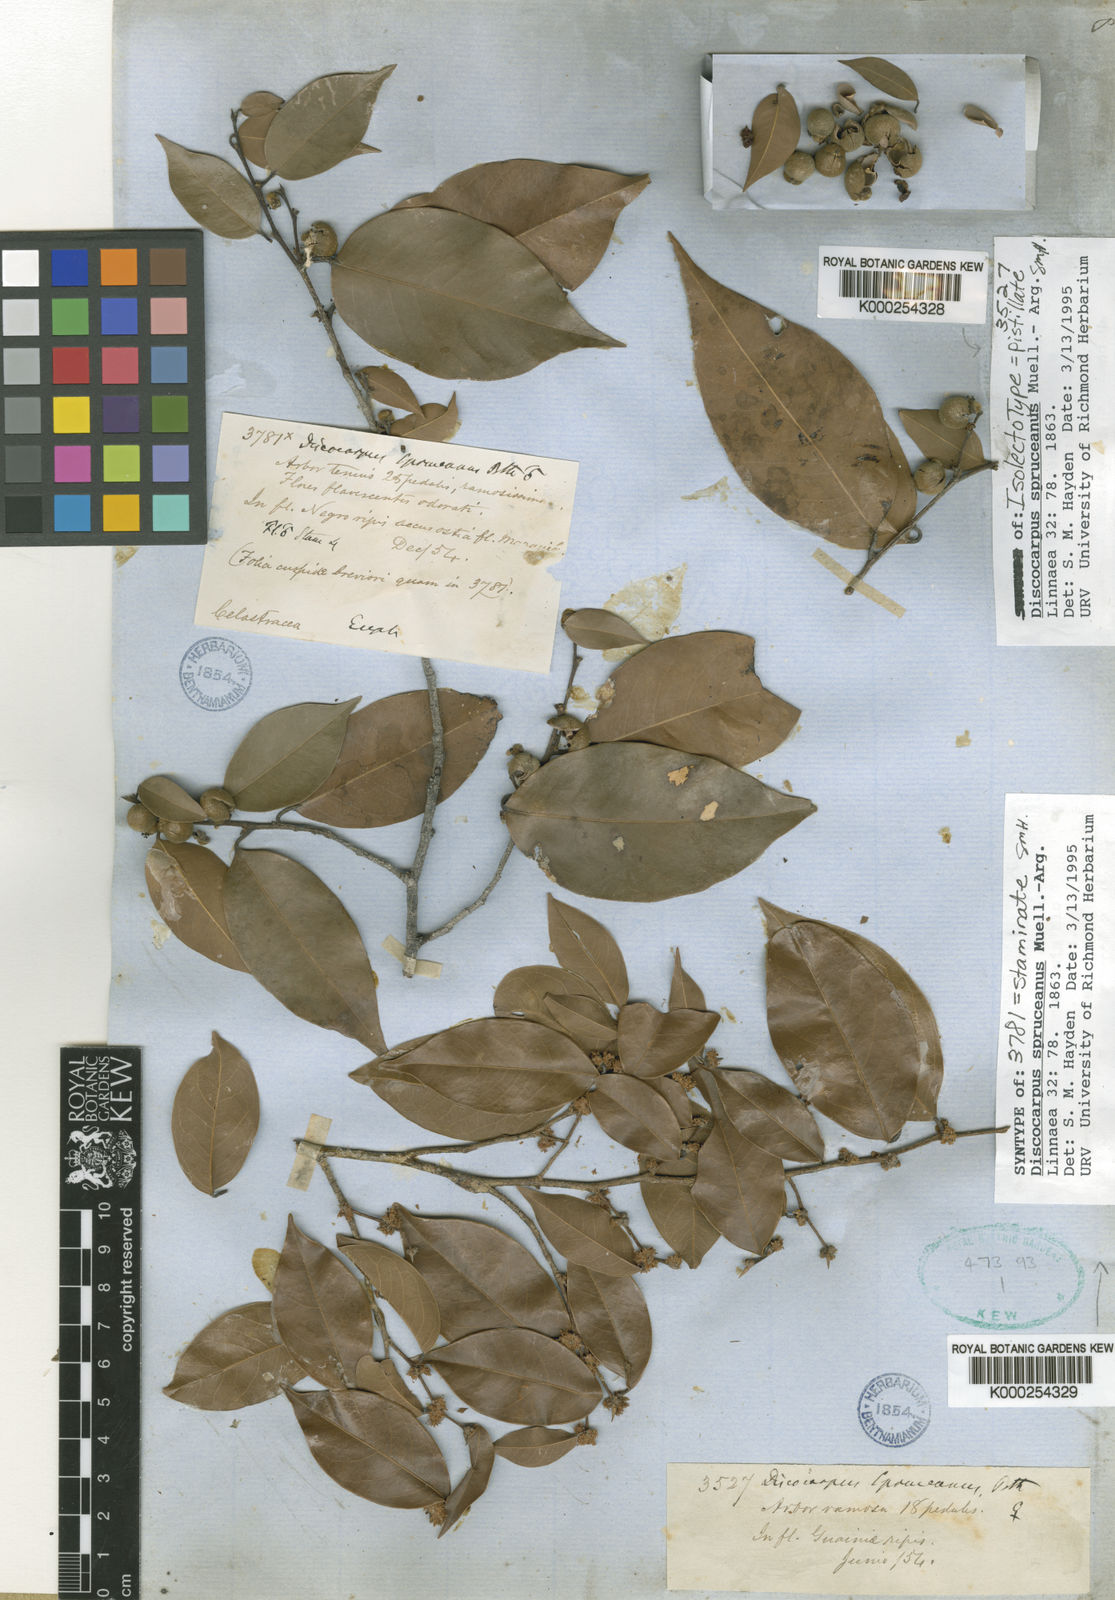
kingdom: Plantae
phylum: Tracheophyta
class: Magnoliopsida
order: Malpighiales
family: Phyllanthaceae
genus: Discocarpus
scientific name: Discocarpus
